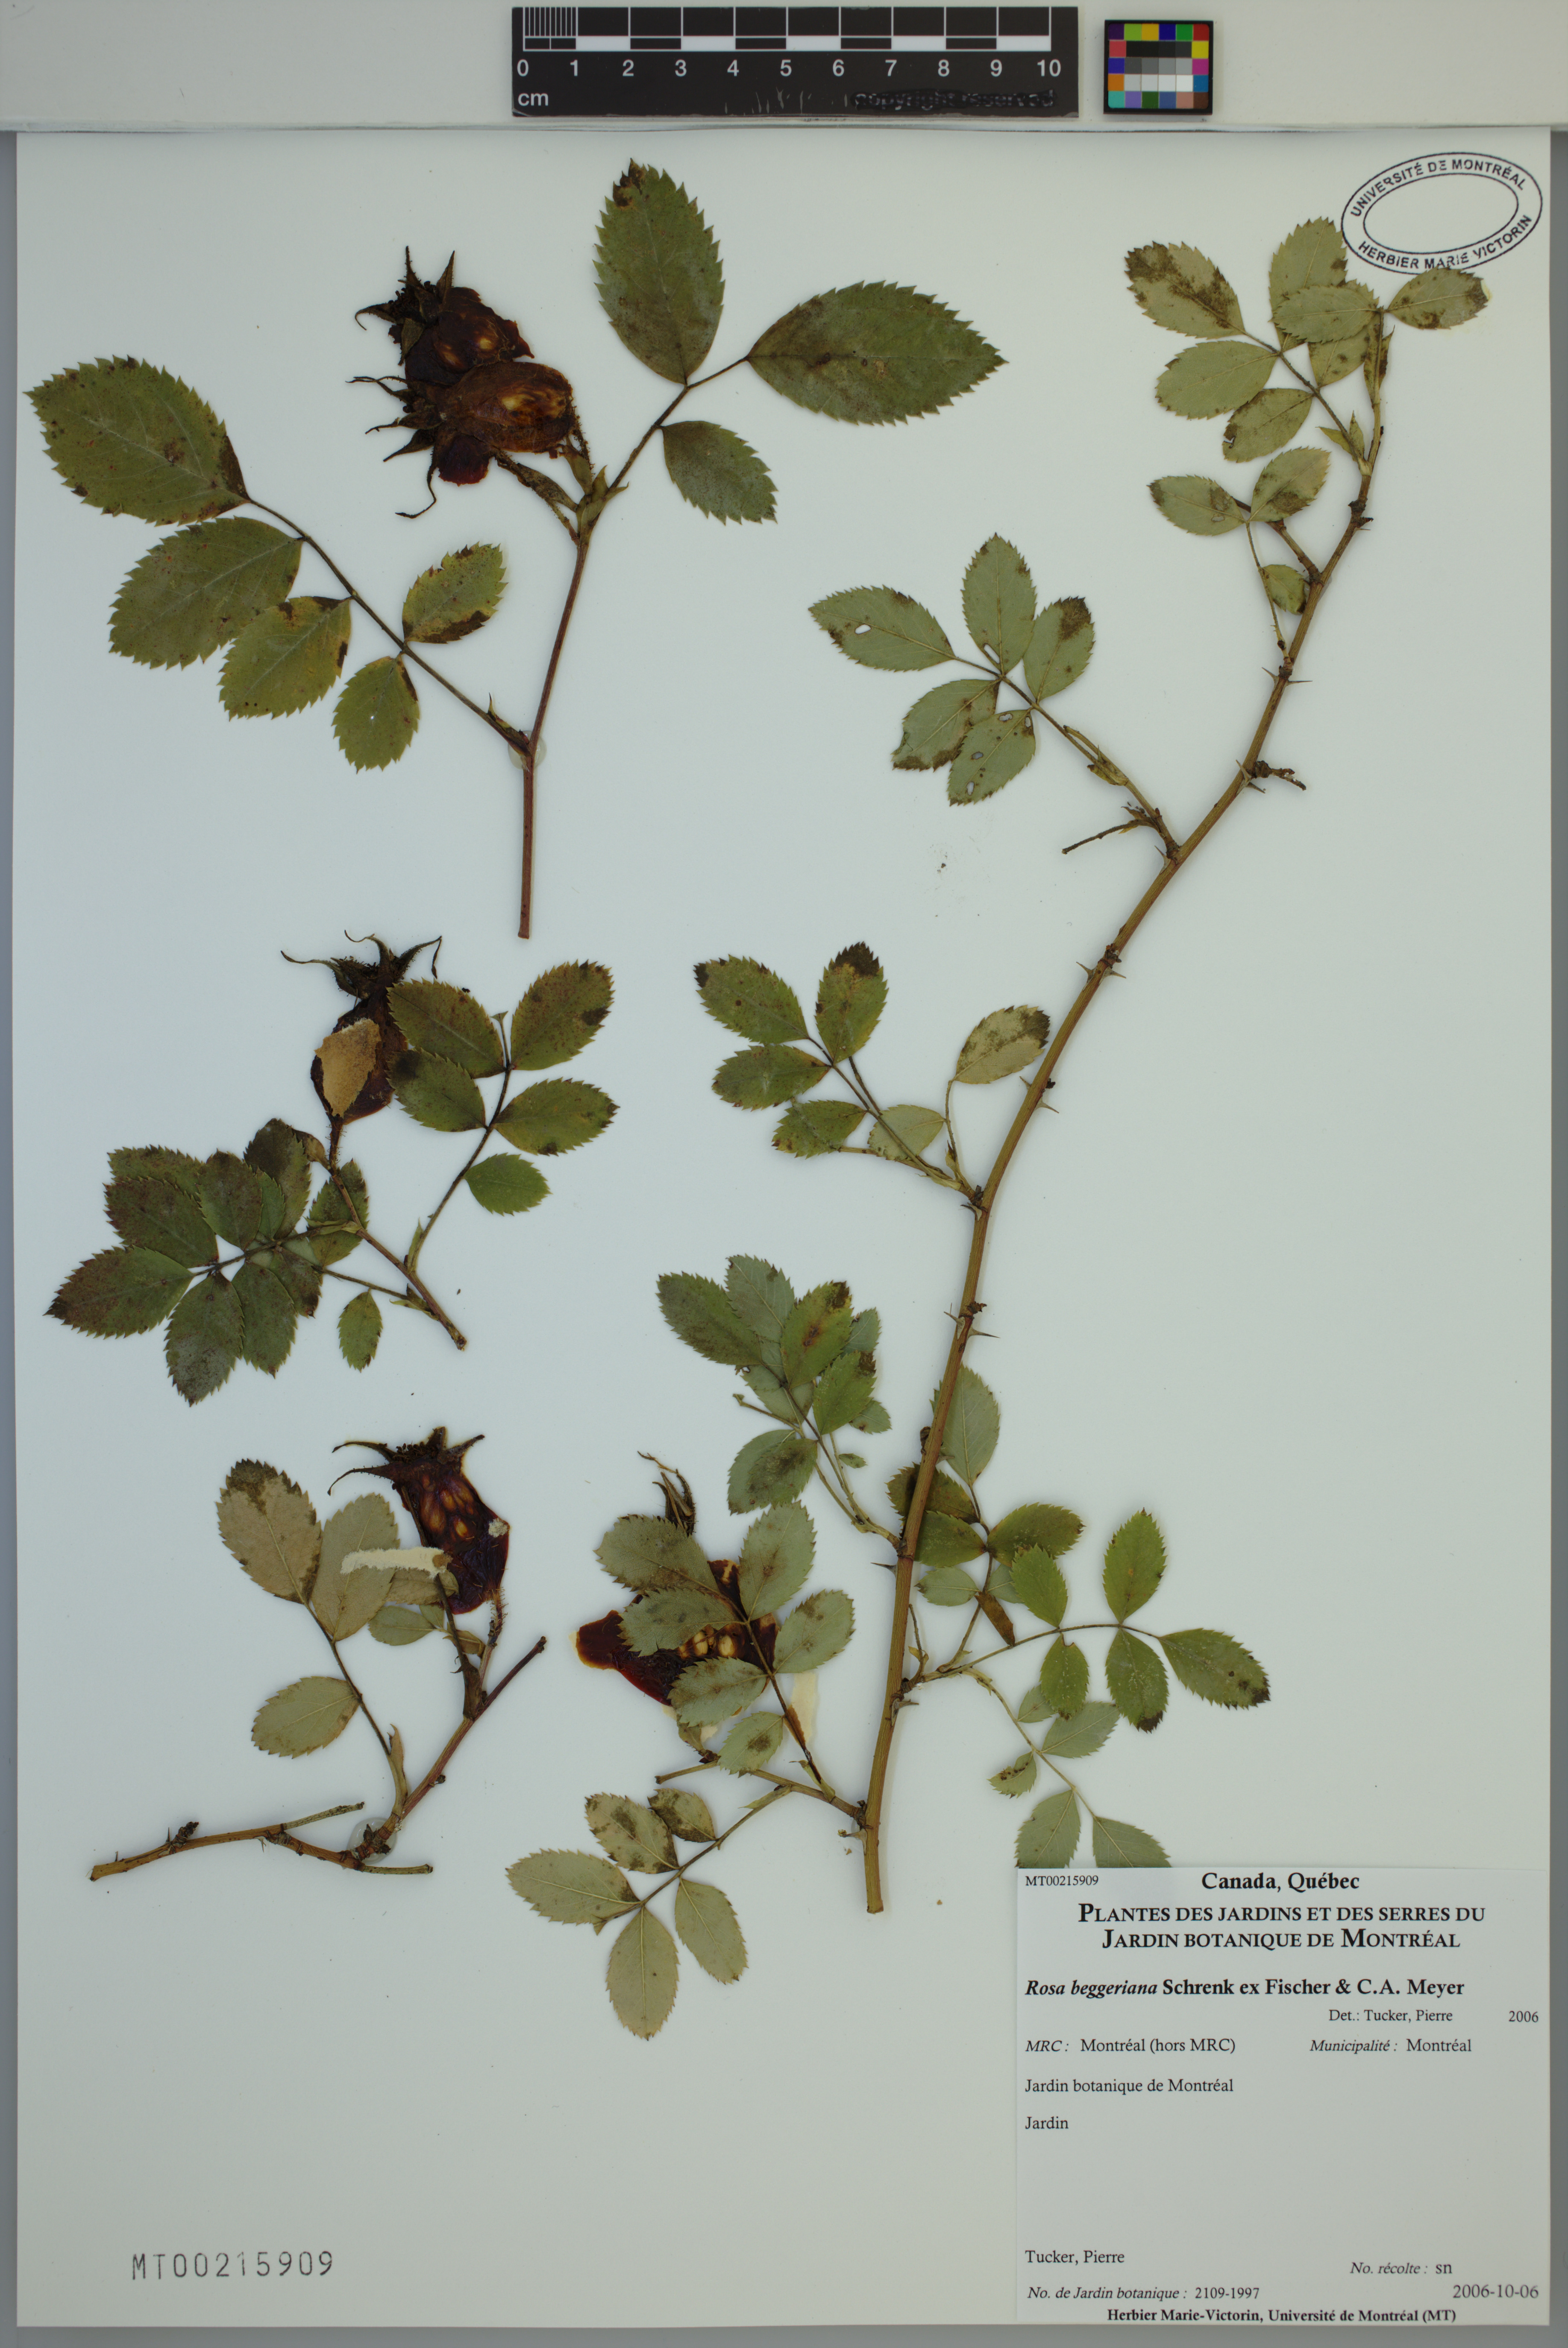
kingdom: Plantae
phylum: Tracheophyta
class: Magnoliopsida
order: Rosales
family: Rosaceae
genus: Rosa
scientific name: Rosa beggeriana
